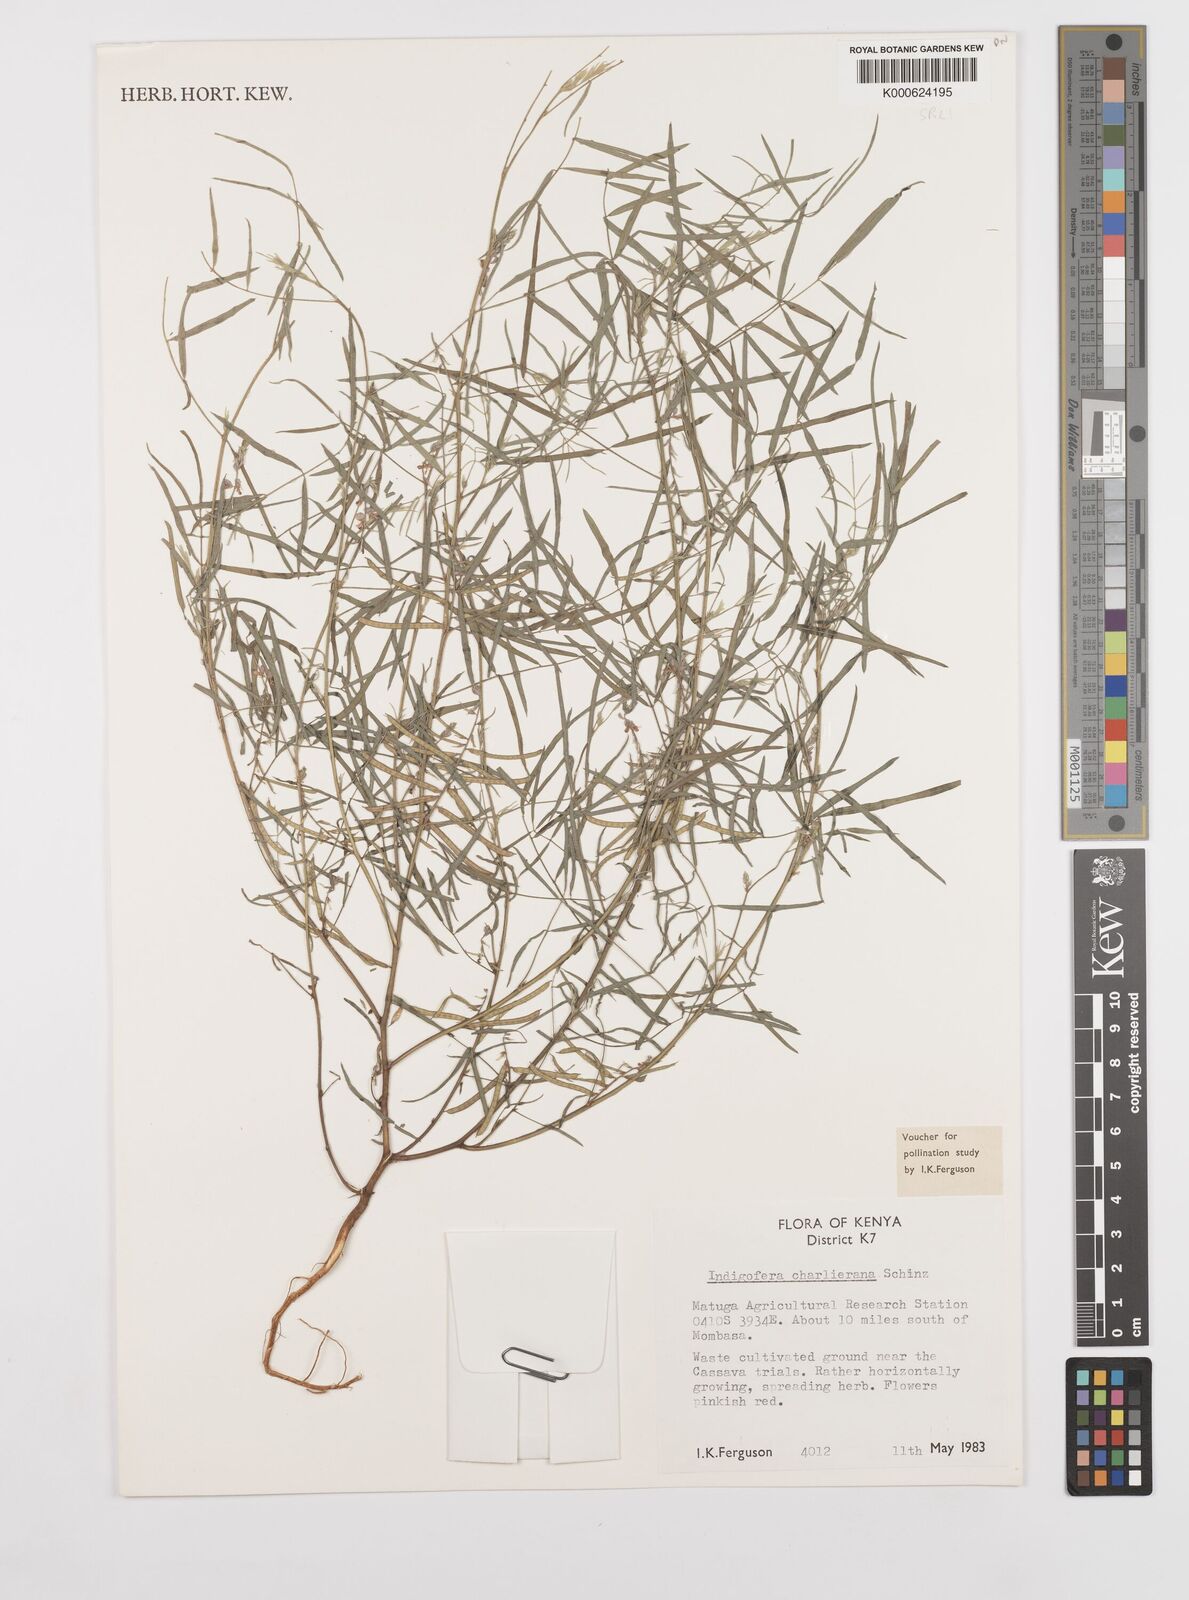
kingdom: Plantae
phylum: Tracheophyta
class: Magnoliopsida
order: Fabales
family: Fabaceae
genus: Indigofera
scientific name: Indigofera charlieriana
